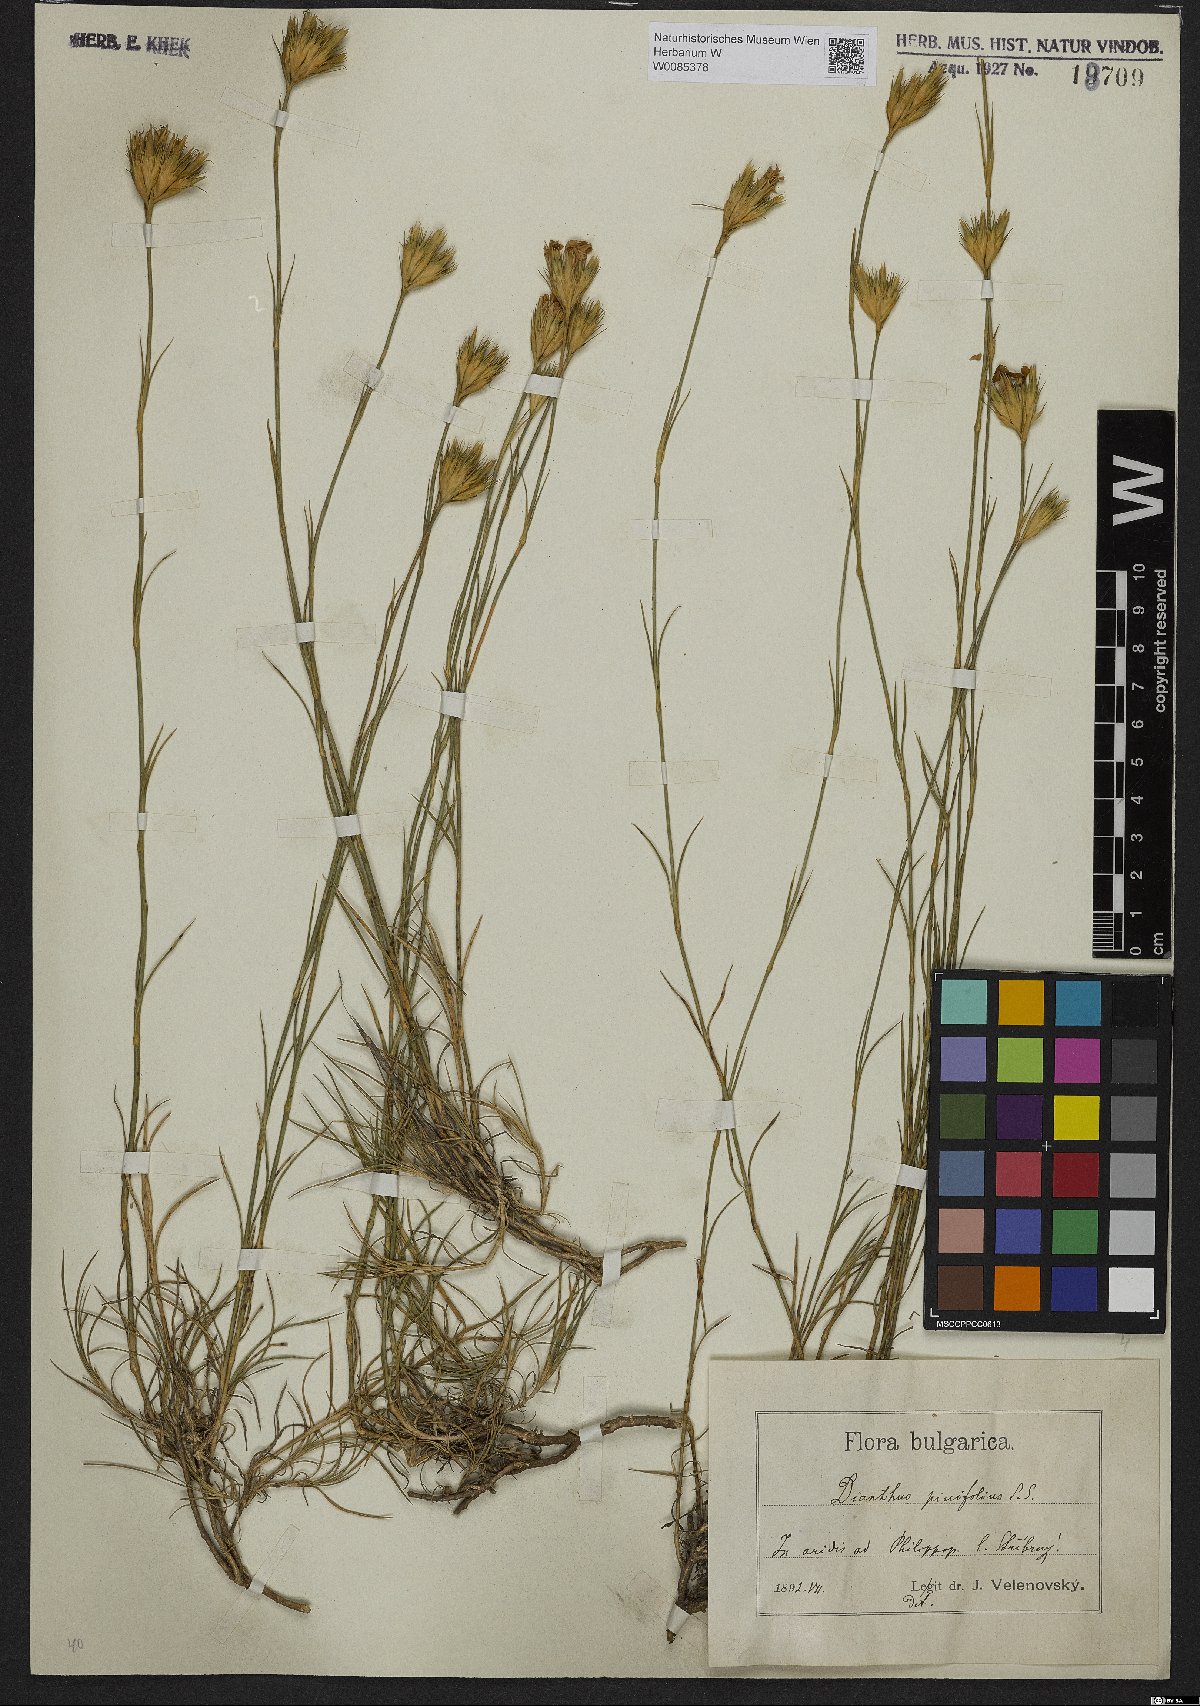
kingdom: Plantae
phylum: Tracheophyta
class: Magnoliopsida
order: Caryophyllales
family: Caryophyllaceae
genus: Dianthus
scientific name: Dianthus pinifolius
